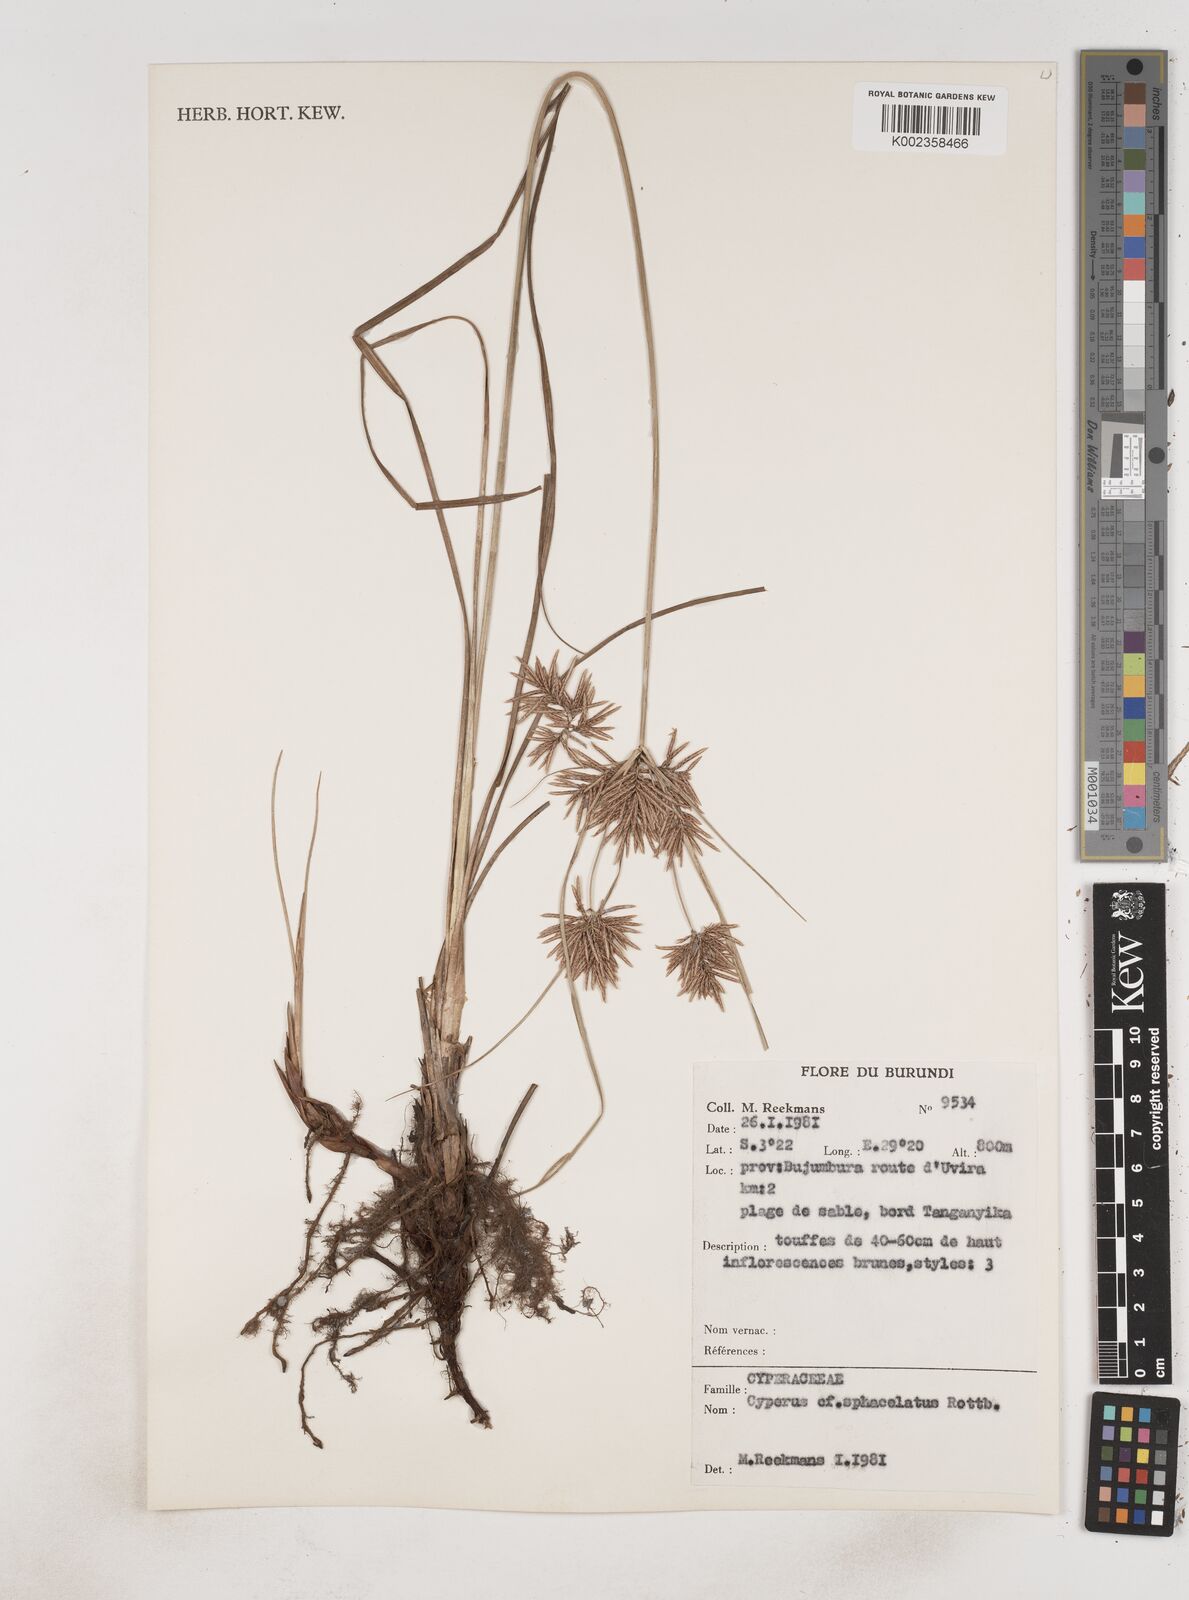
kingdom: Plantae
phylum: Tracheophyta
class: Liliopsida
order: Poales
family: Cyperaceae
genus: Cyperus
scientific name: Cyperus sphacelatus
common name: Roadside flatsedge
